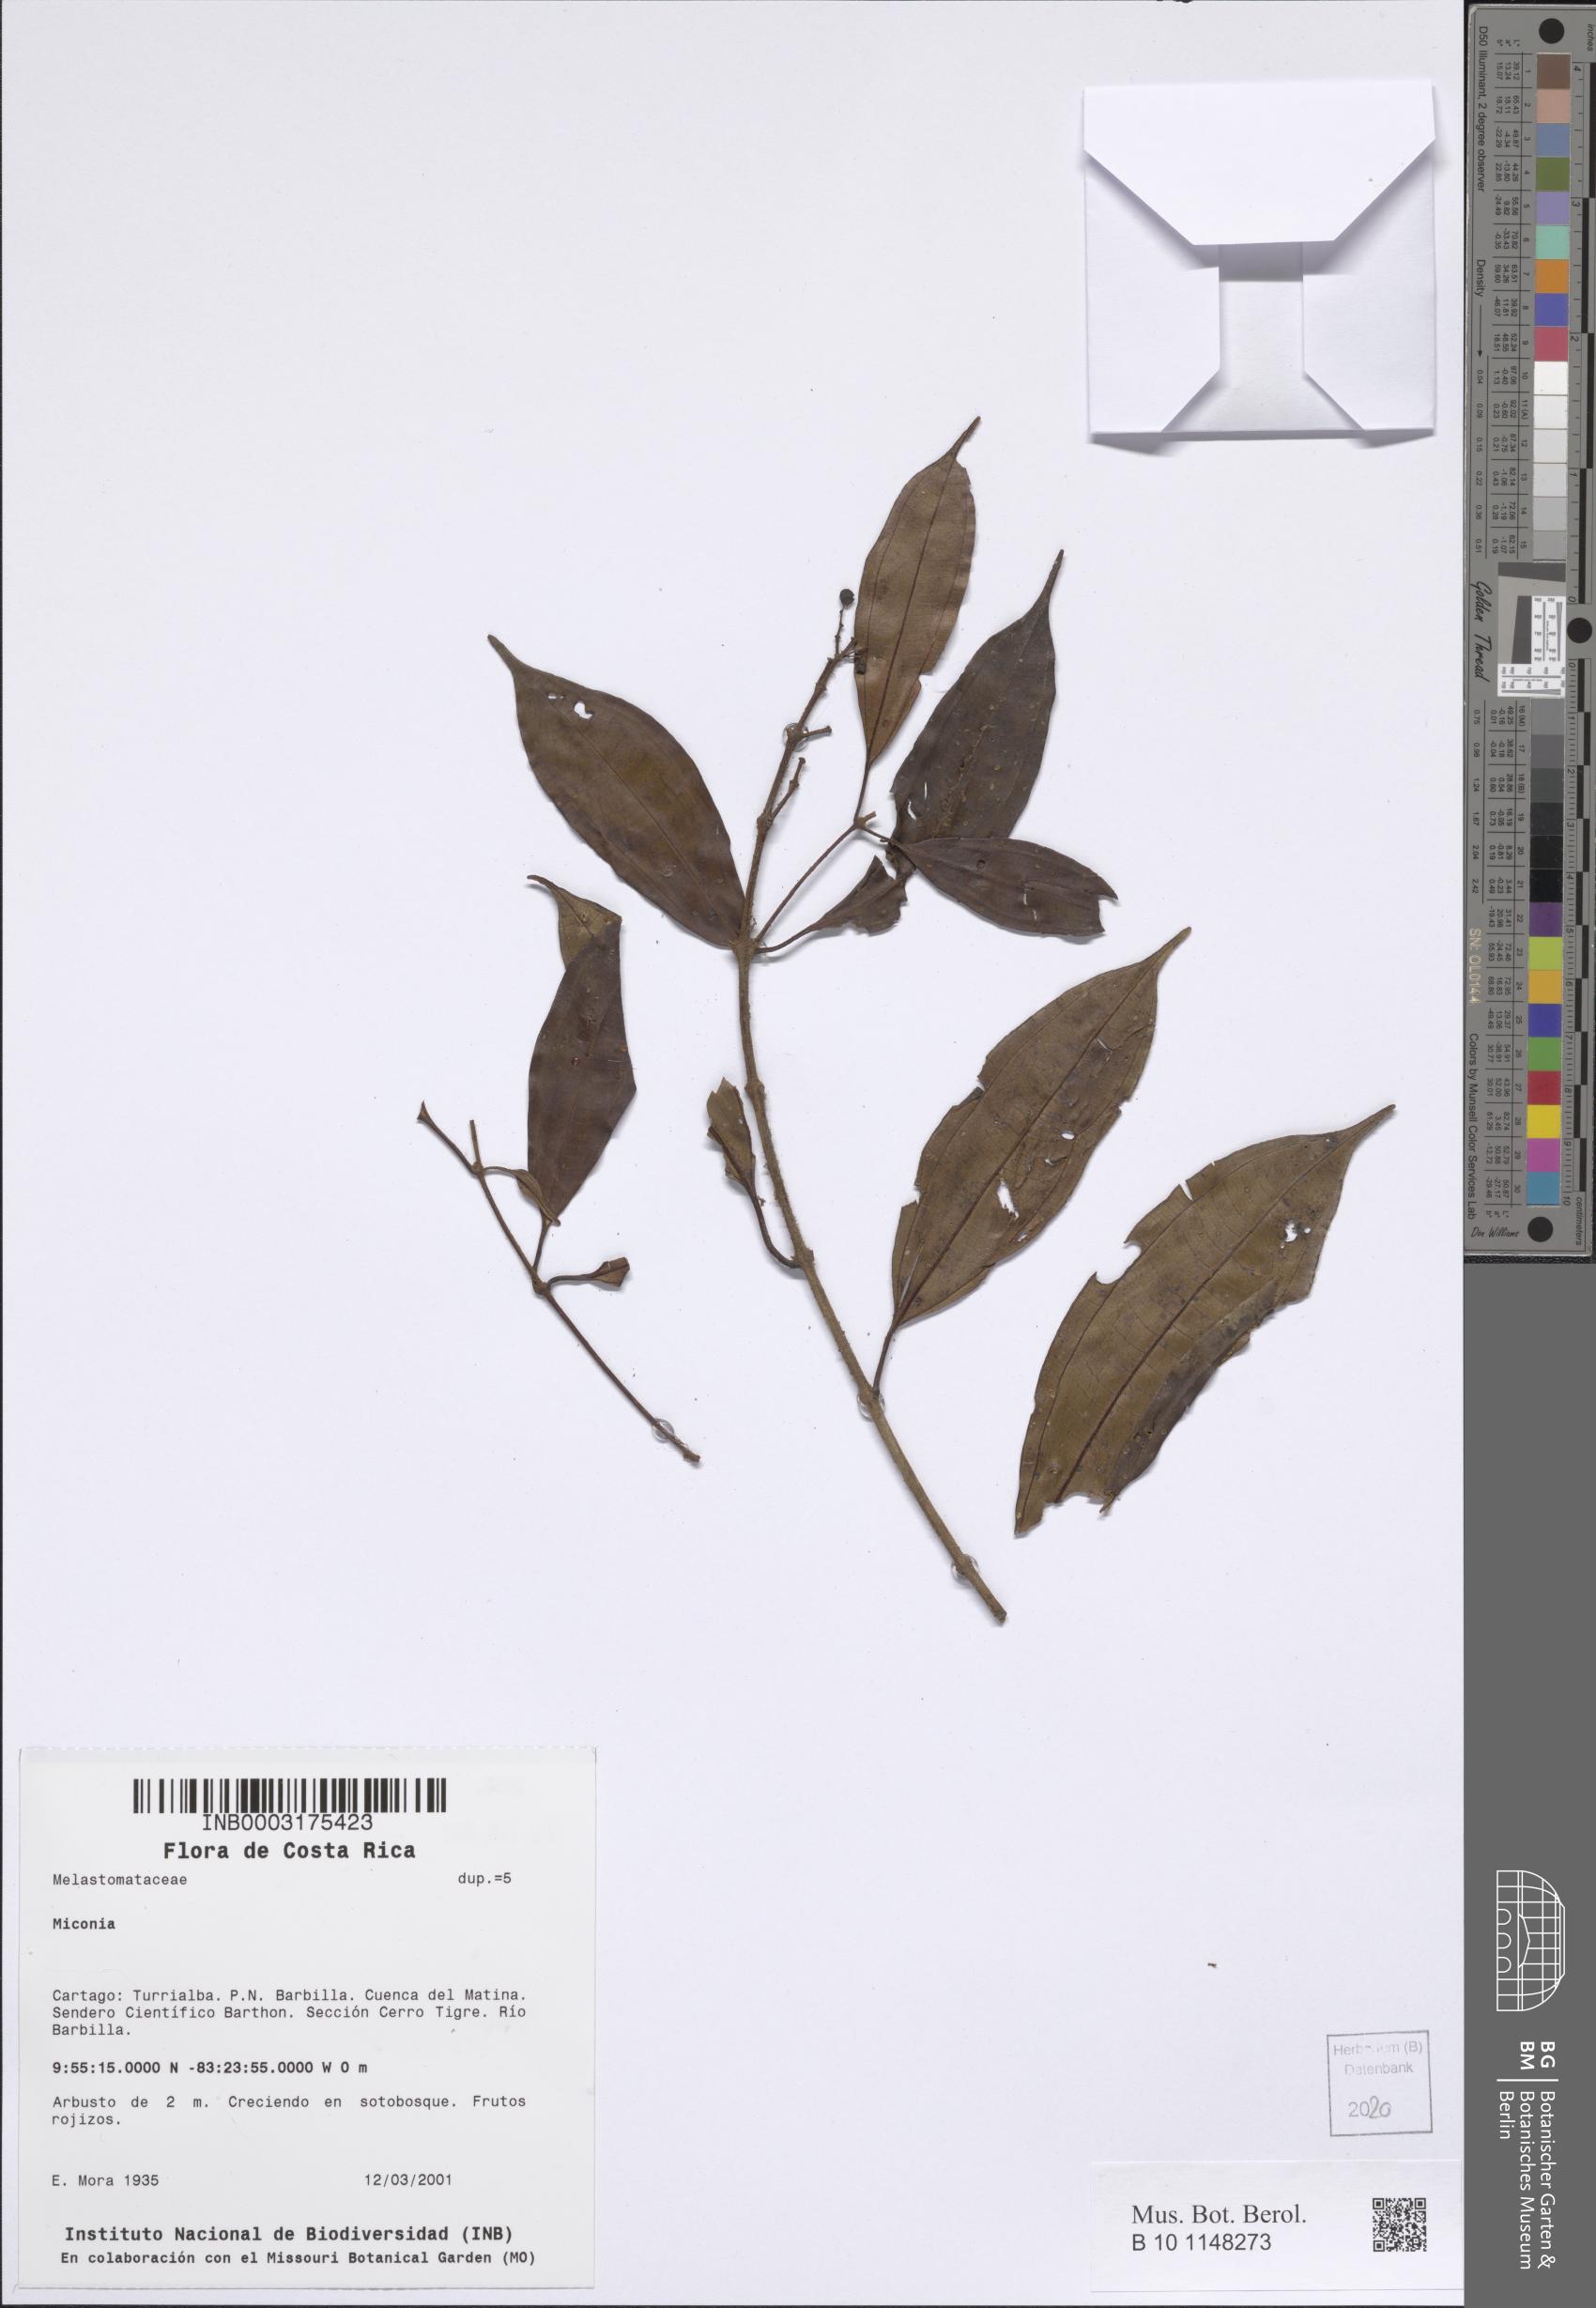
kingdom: Plantae
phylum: Tracheophyta
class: Magnoliopsida
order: Myrtales
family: Melastomataceae
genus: Miconia
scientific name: Miconia
